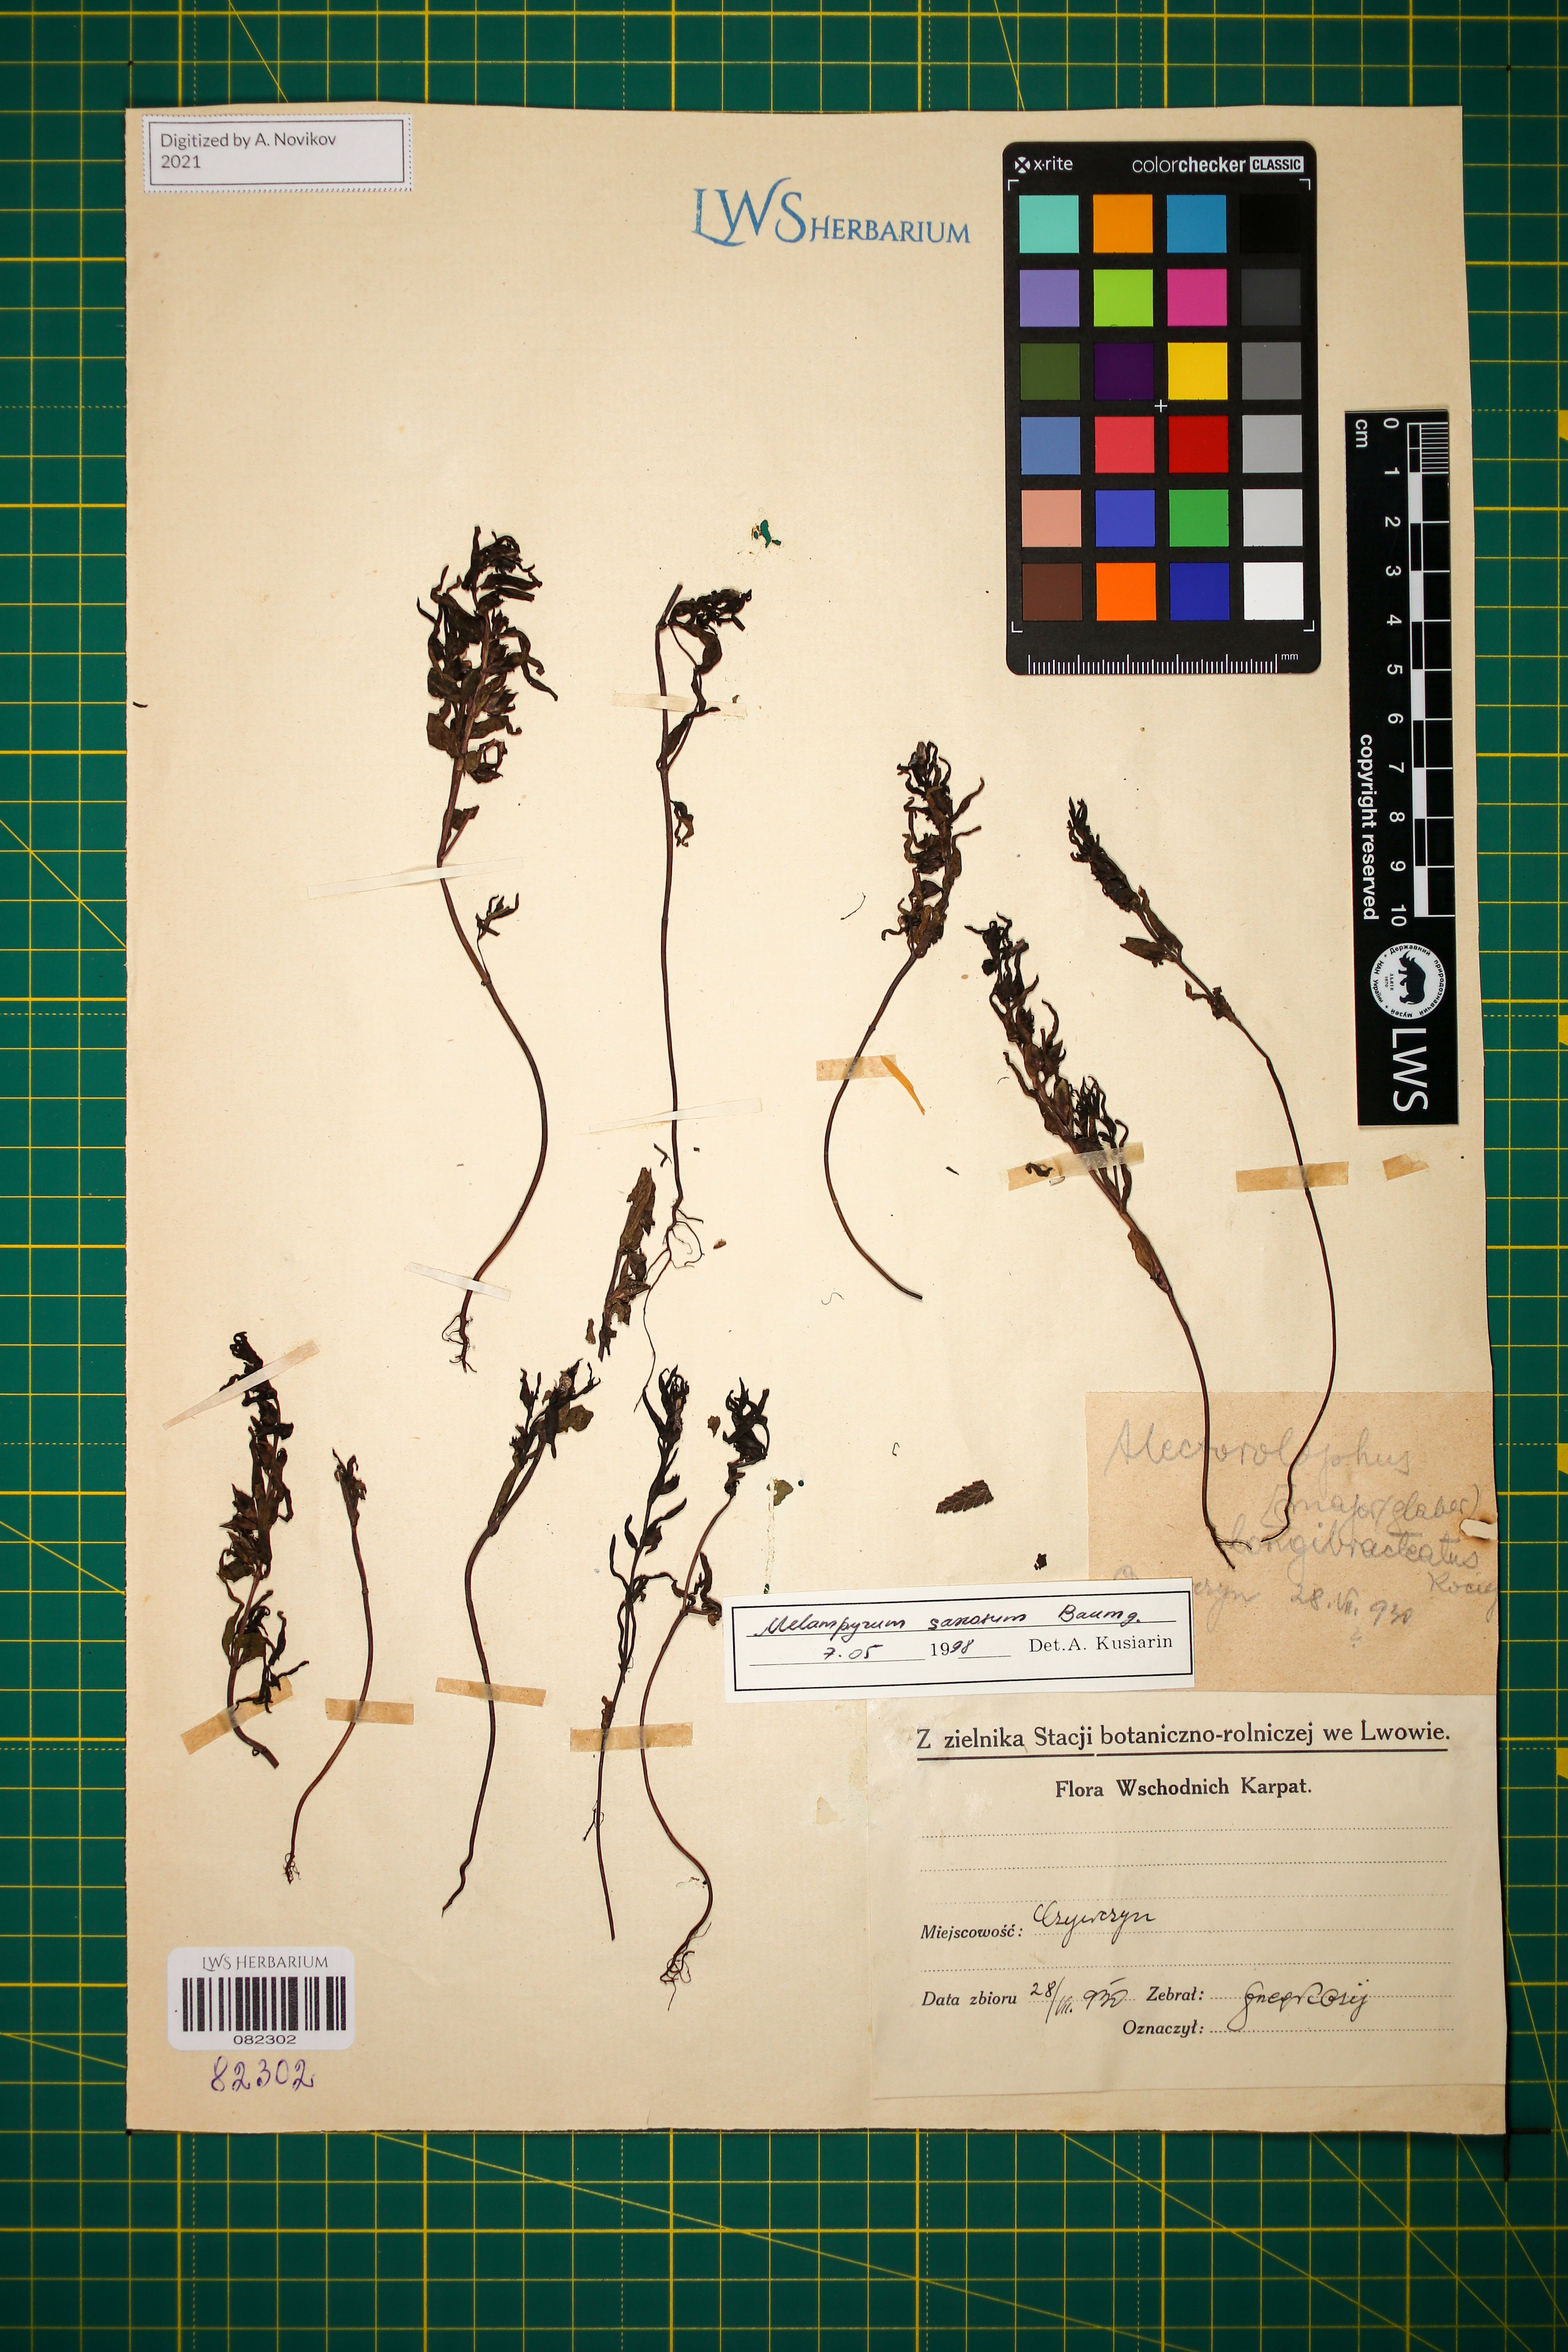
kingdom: Plantae
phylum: Tracheophyta
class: Magnoliopsida
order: Lamiales
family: Orobanchaceae
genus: Melampyrum
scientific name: Melampyrum saxosum
